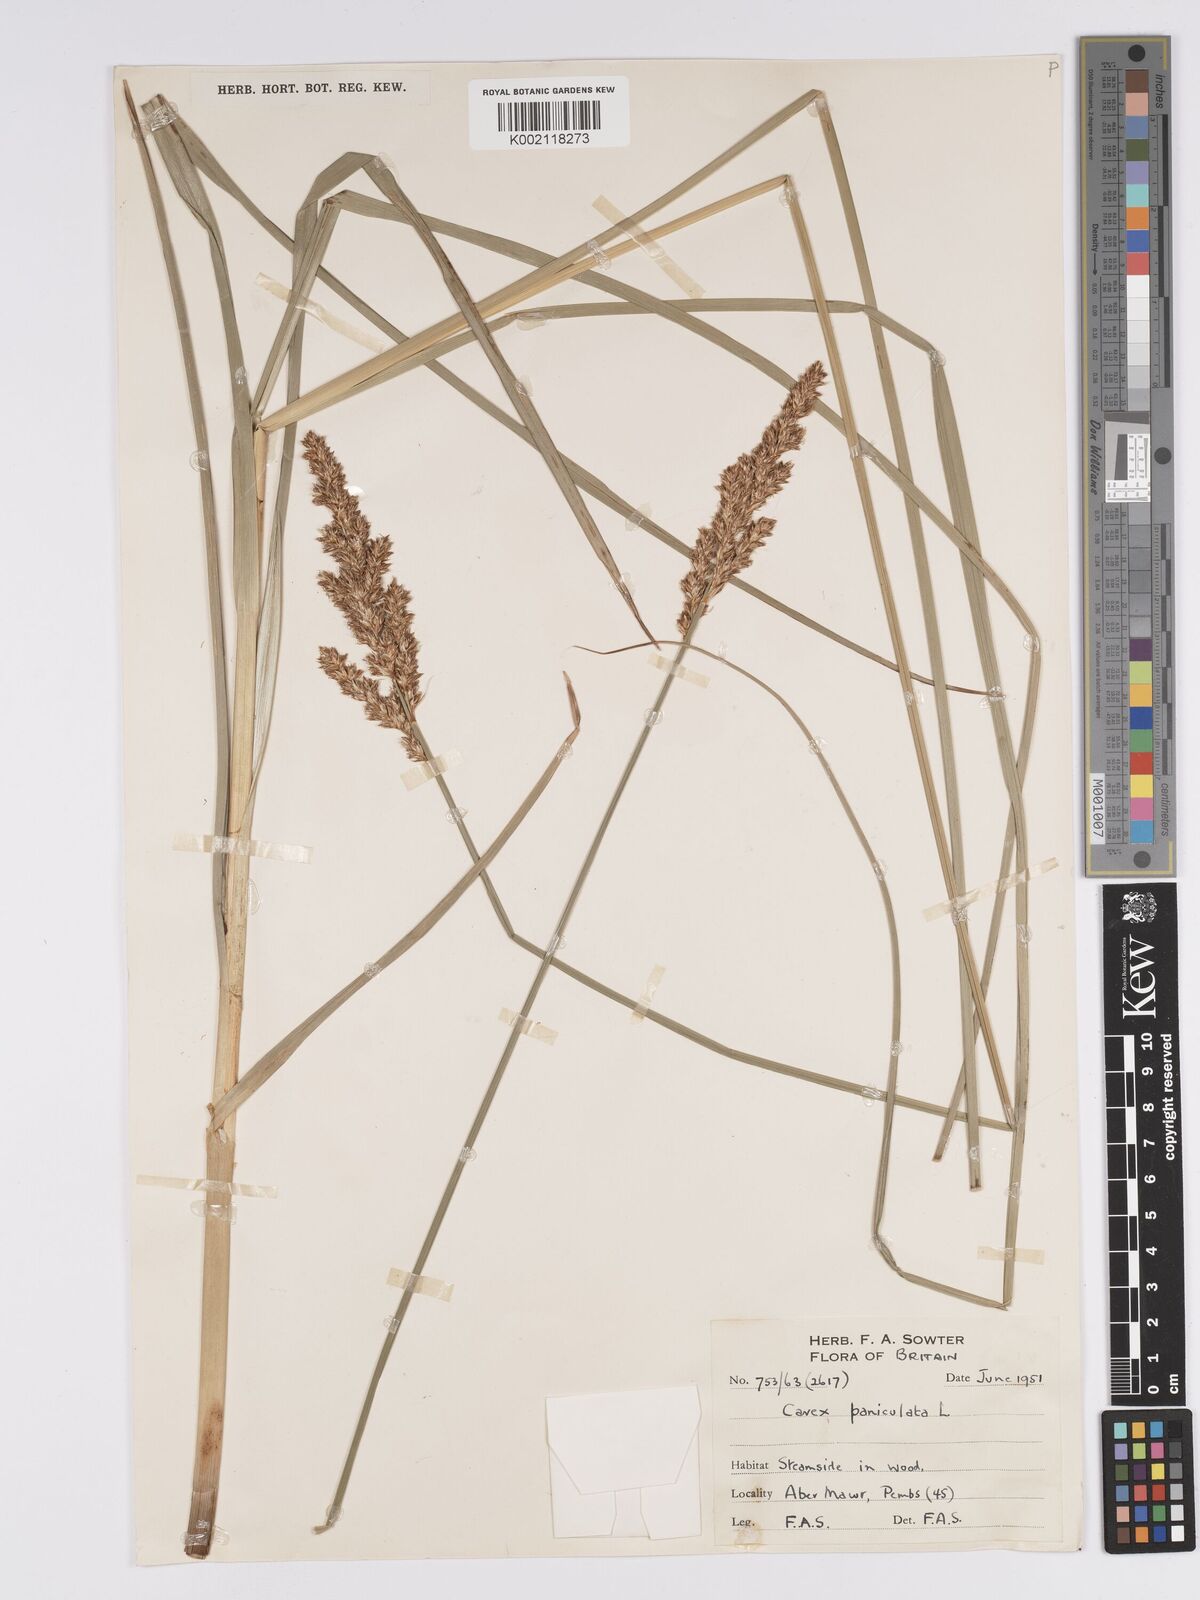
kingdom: Plantae
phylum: Tracheophyta
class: Liliopsida
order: Poales
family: Cyperaceae
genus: Carex
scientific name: Carex paniculata
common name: Greater tussock-sedge
